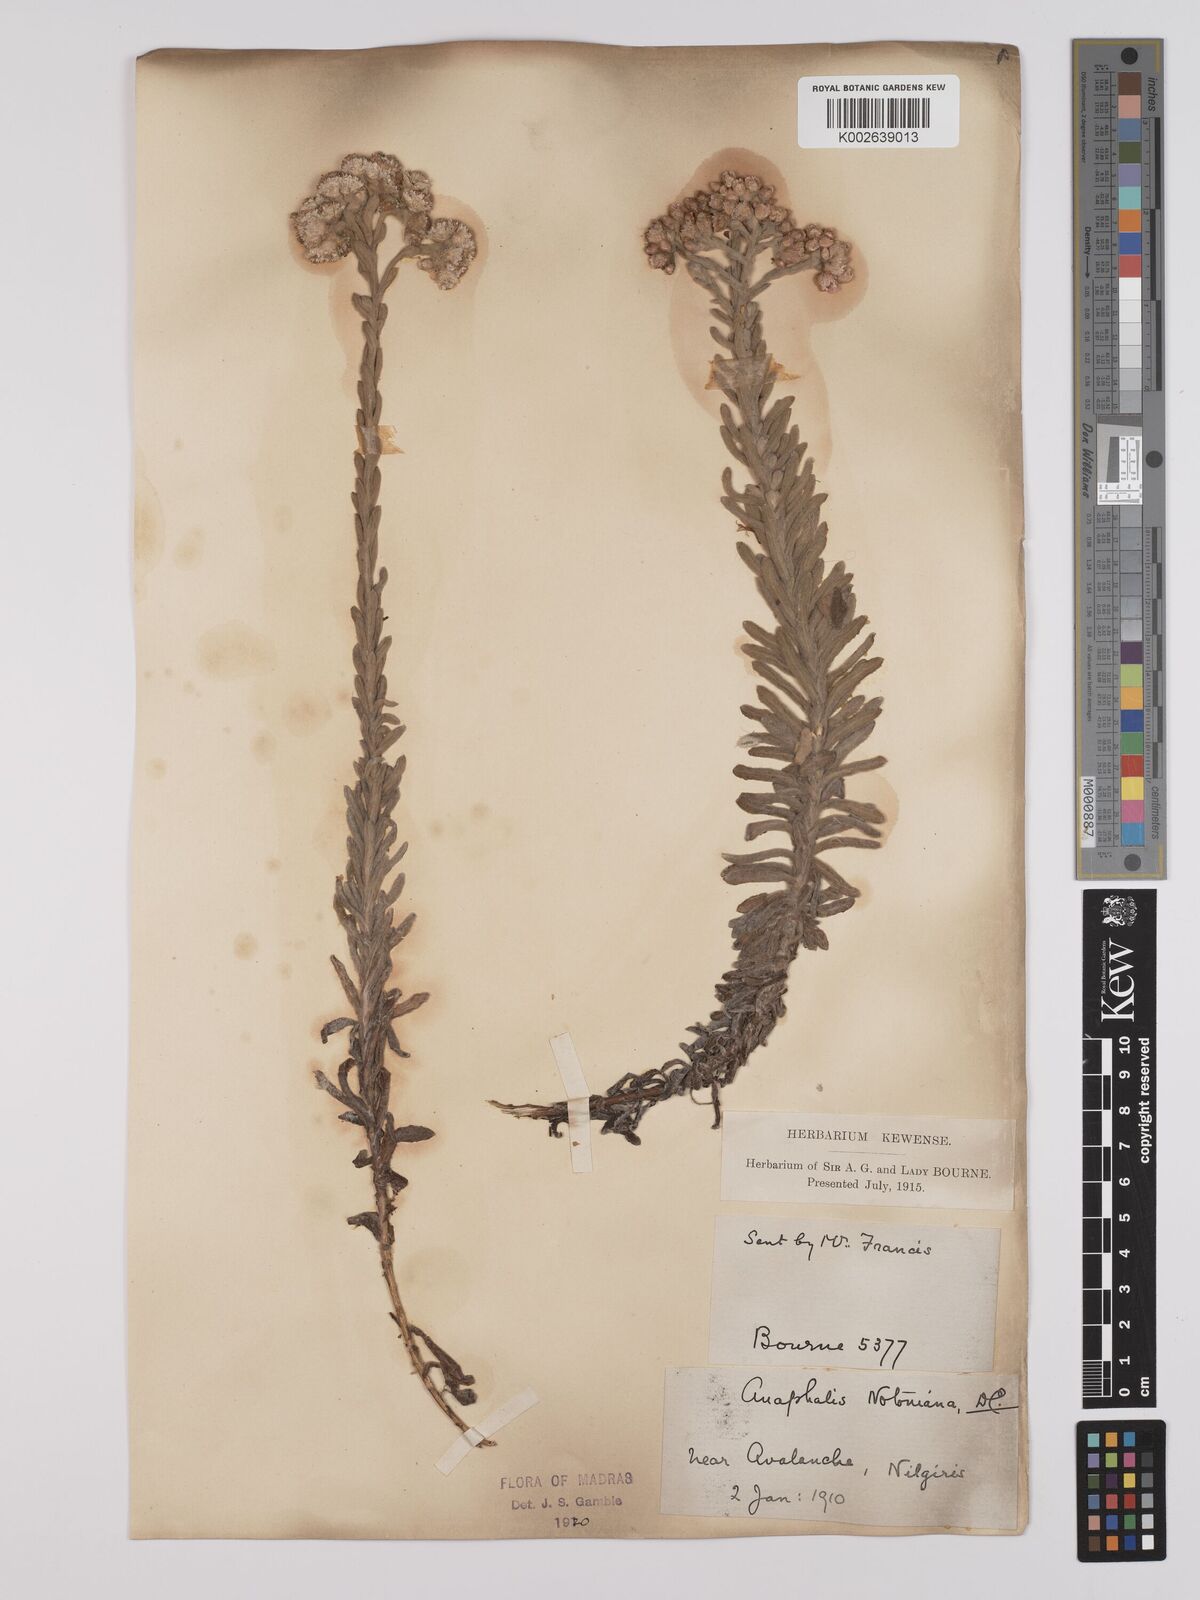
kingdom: Plantae
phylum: Tracheophyta
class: Magnoliopsida
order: Asterales
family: Asteraceae
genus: Anaphalis
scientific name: Anaphalis notoniana
